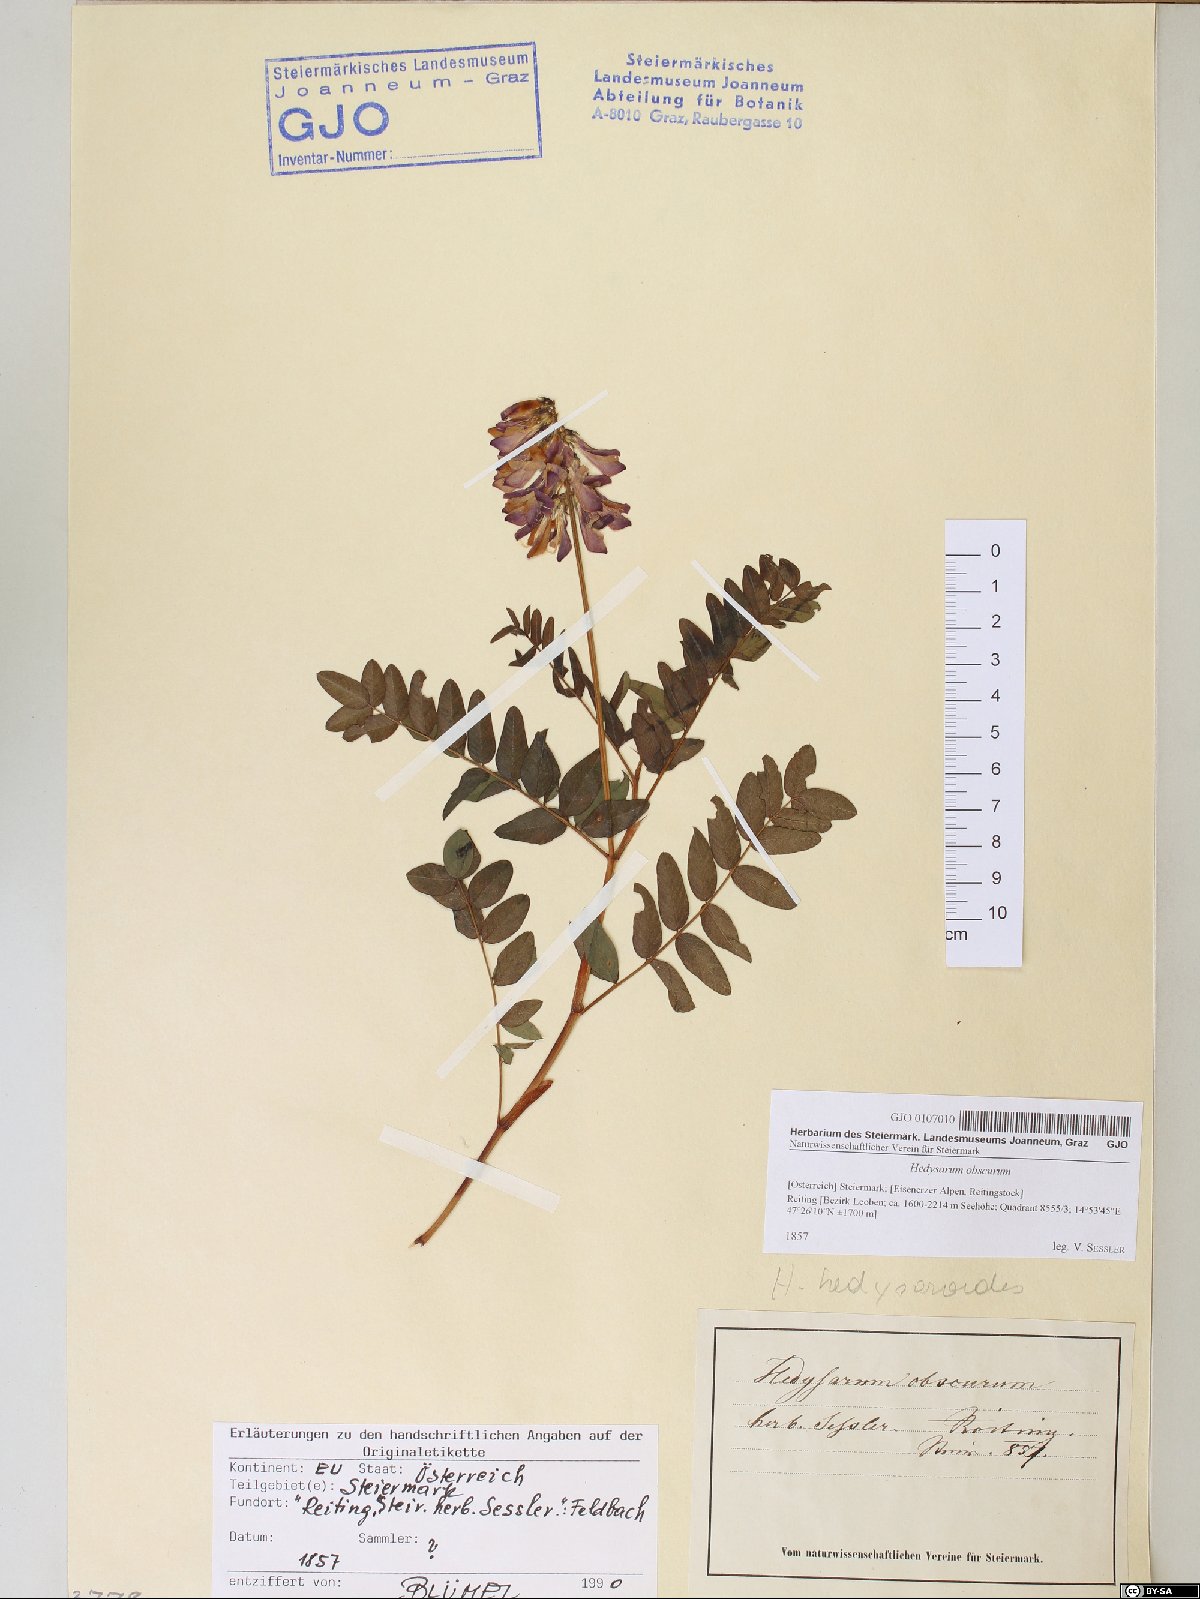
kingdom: Plantae
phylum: Tracheophyta
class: Magnoliopsida
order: Fabales
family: Fabaceae
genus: Hedysarum
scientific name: Hedysarum hedysaroides
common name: Alpine french-honeysuckle
